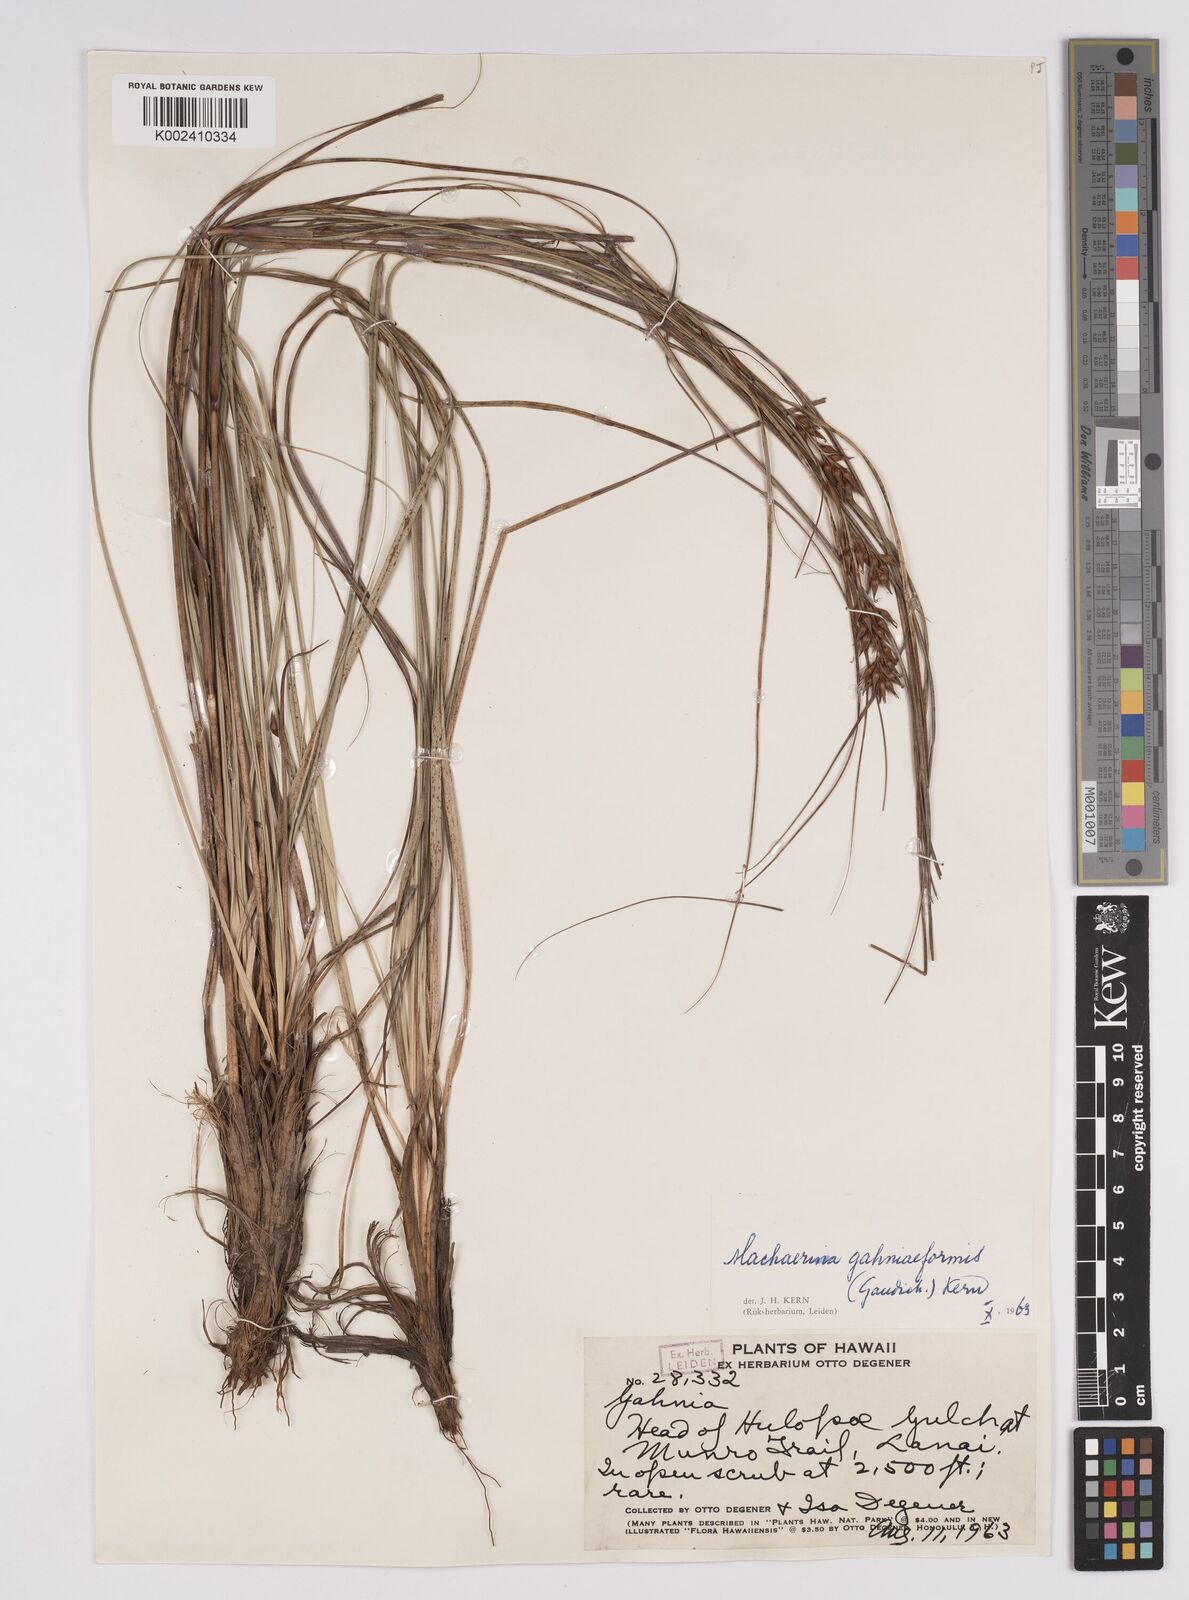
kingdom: Plantae
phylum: Tracheophyta
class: Liliopsida
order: Poales
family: Cyperaceae
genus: Morelotia
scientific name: Morelotia gahniiformis
